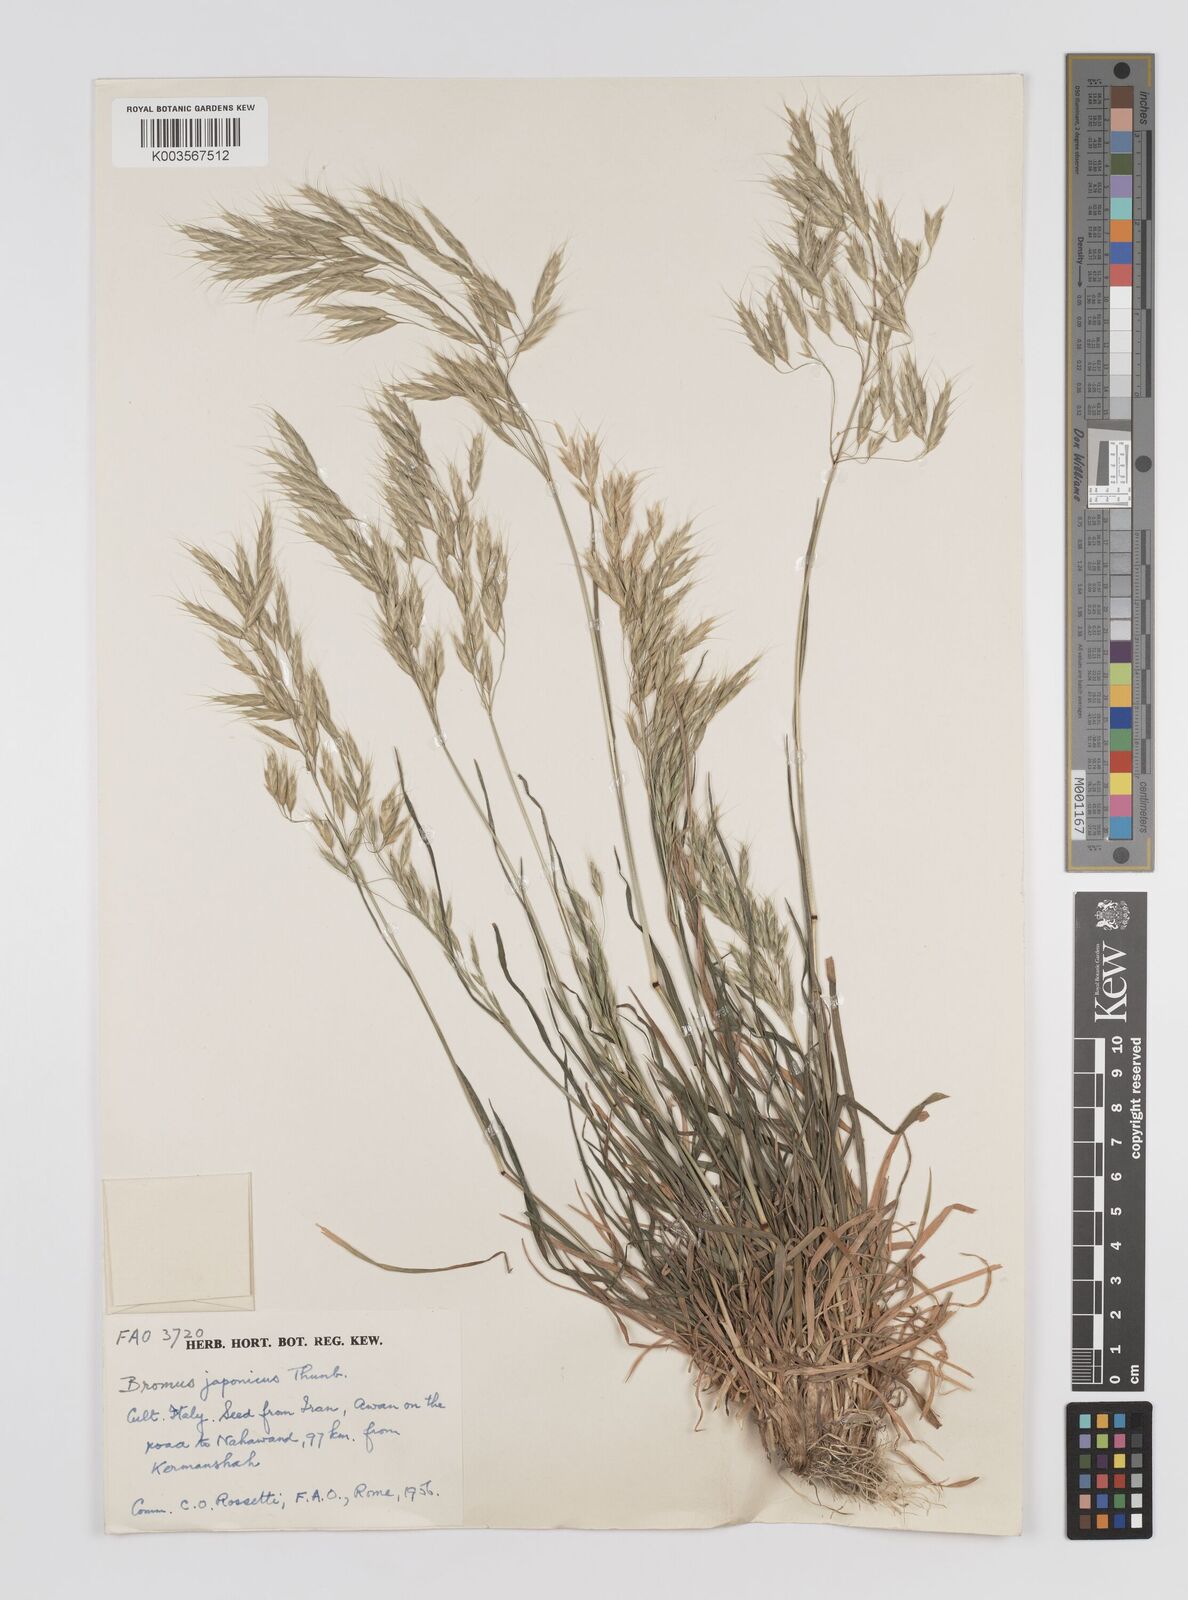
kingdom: Plantae
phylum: Tracheophyta
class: Liliopsida
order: Poales
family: Poaceae
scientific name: Poaceae
